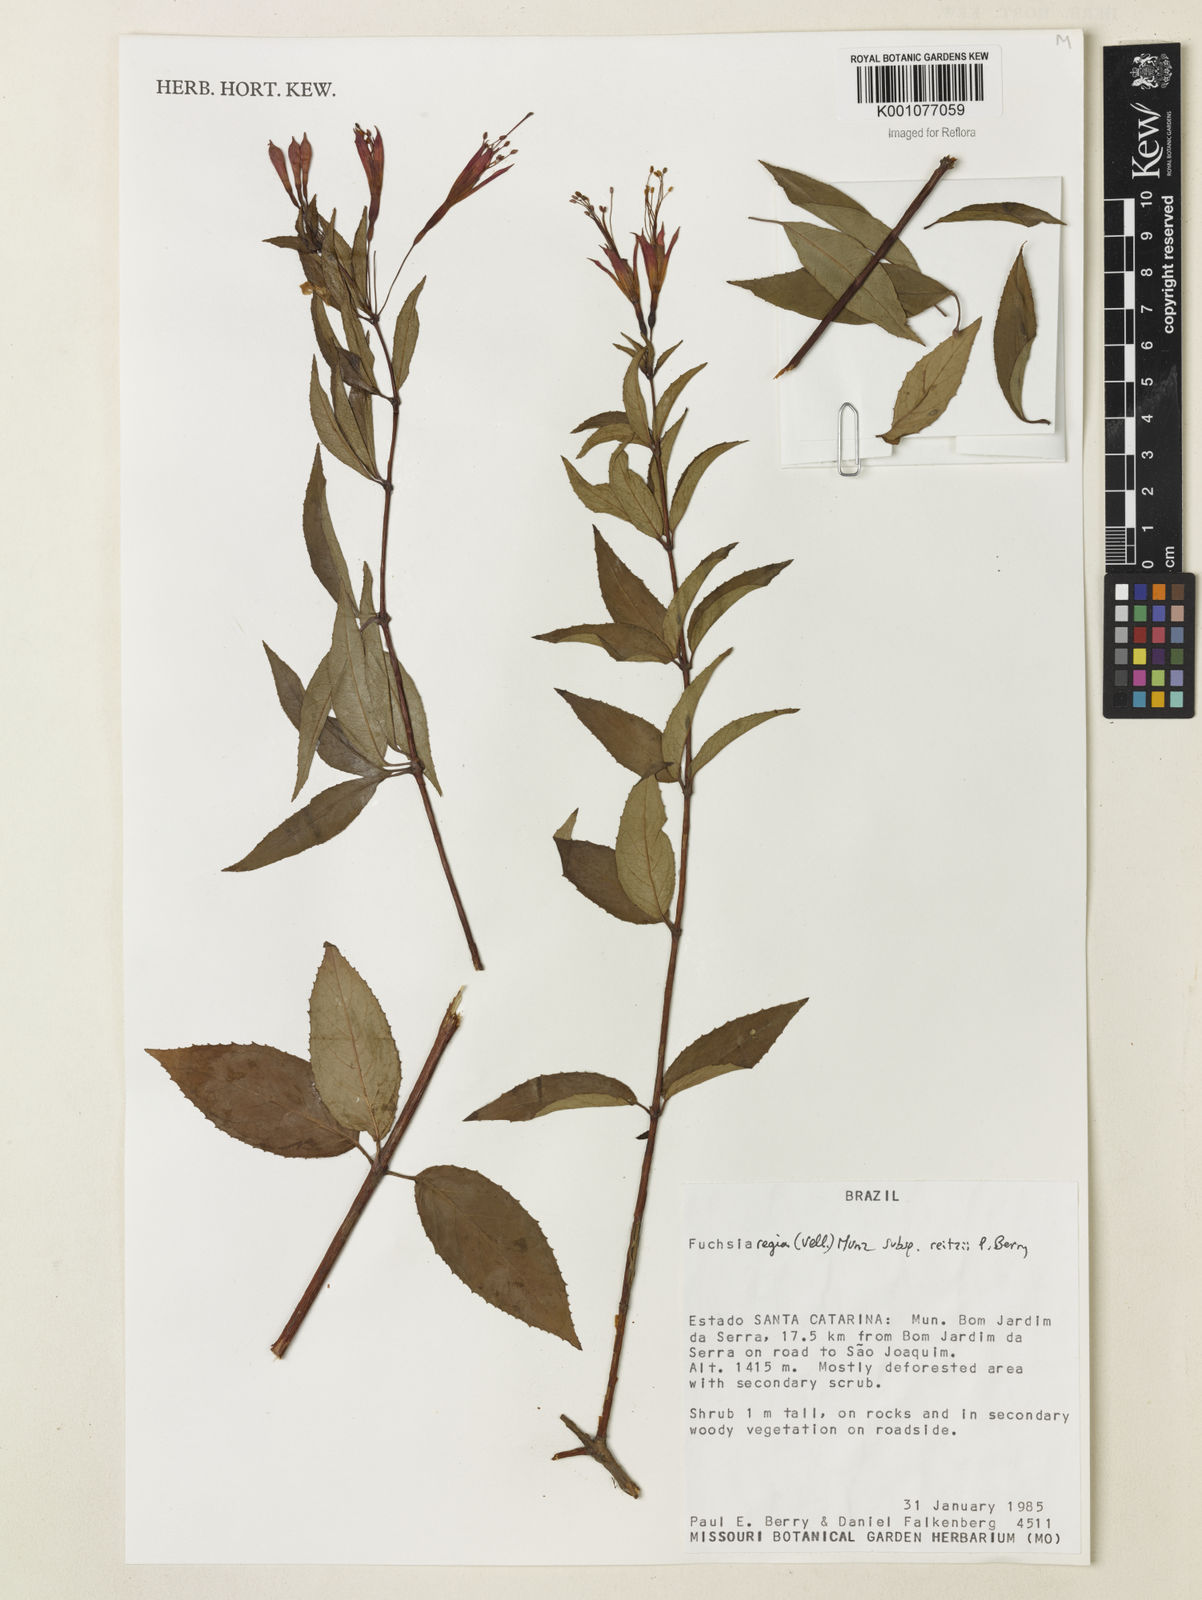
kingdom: Plantae
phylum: Tracheophyta
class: Magnoliopsida
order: Myrtales
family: Onagraceae
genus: Fuchsia
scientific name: Fuchsia regia
